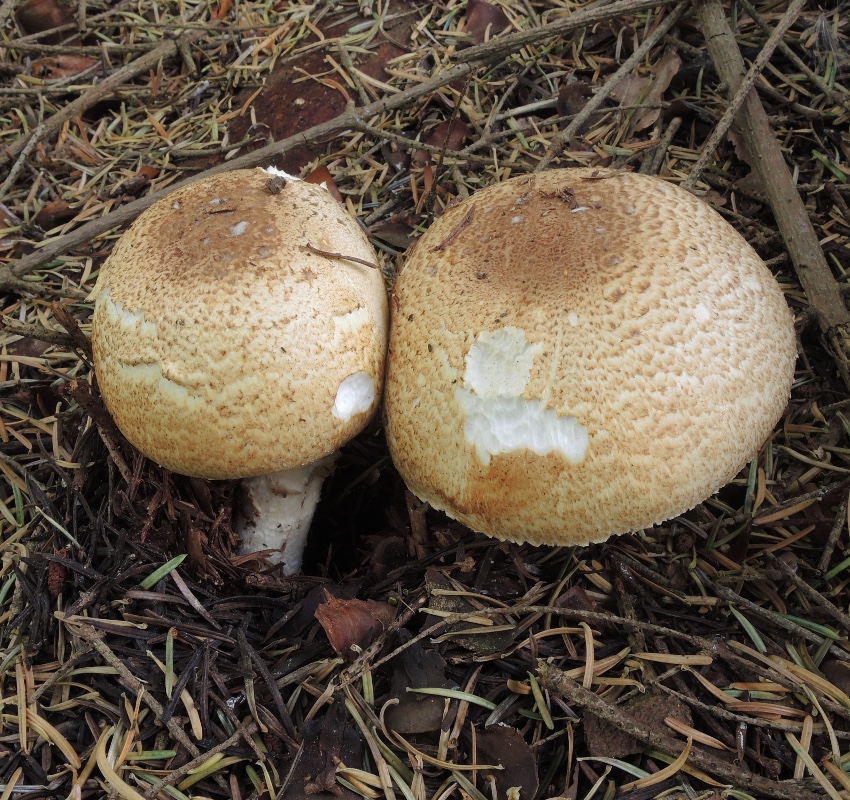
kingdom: Fungi
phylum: Basidiomycota
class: Agaricomycetes
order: Agaricales
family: Agaricaceae
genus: Agaricus
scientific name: Agaricus augustus
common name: prægtig champignon
